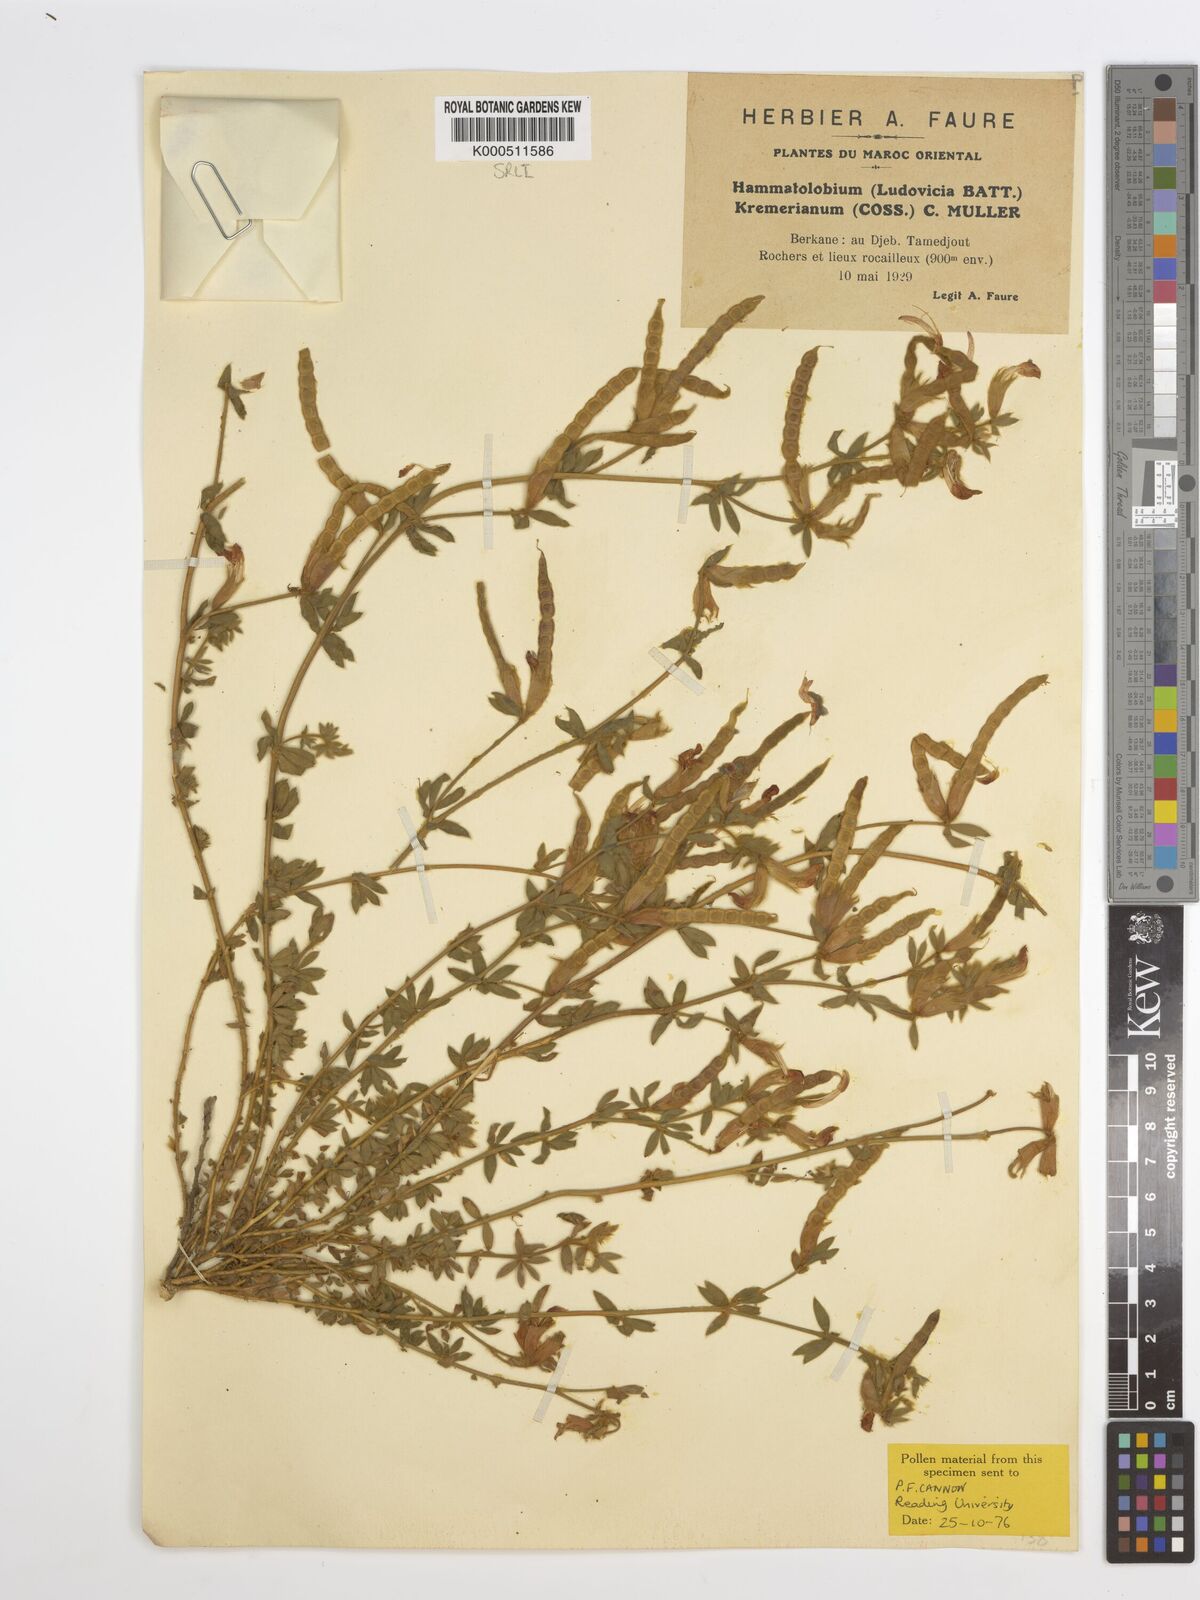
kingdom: Plantae
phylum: Tracheophyta
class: Magnoliopsida
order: Fabales
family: Fabaceae
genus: Hammatolobium
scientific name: Hammatolobium
